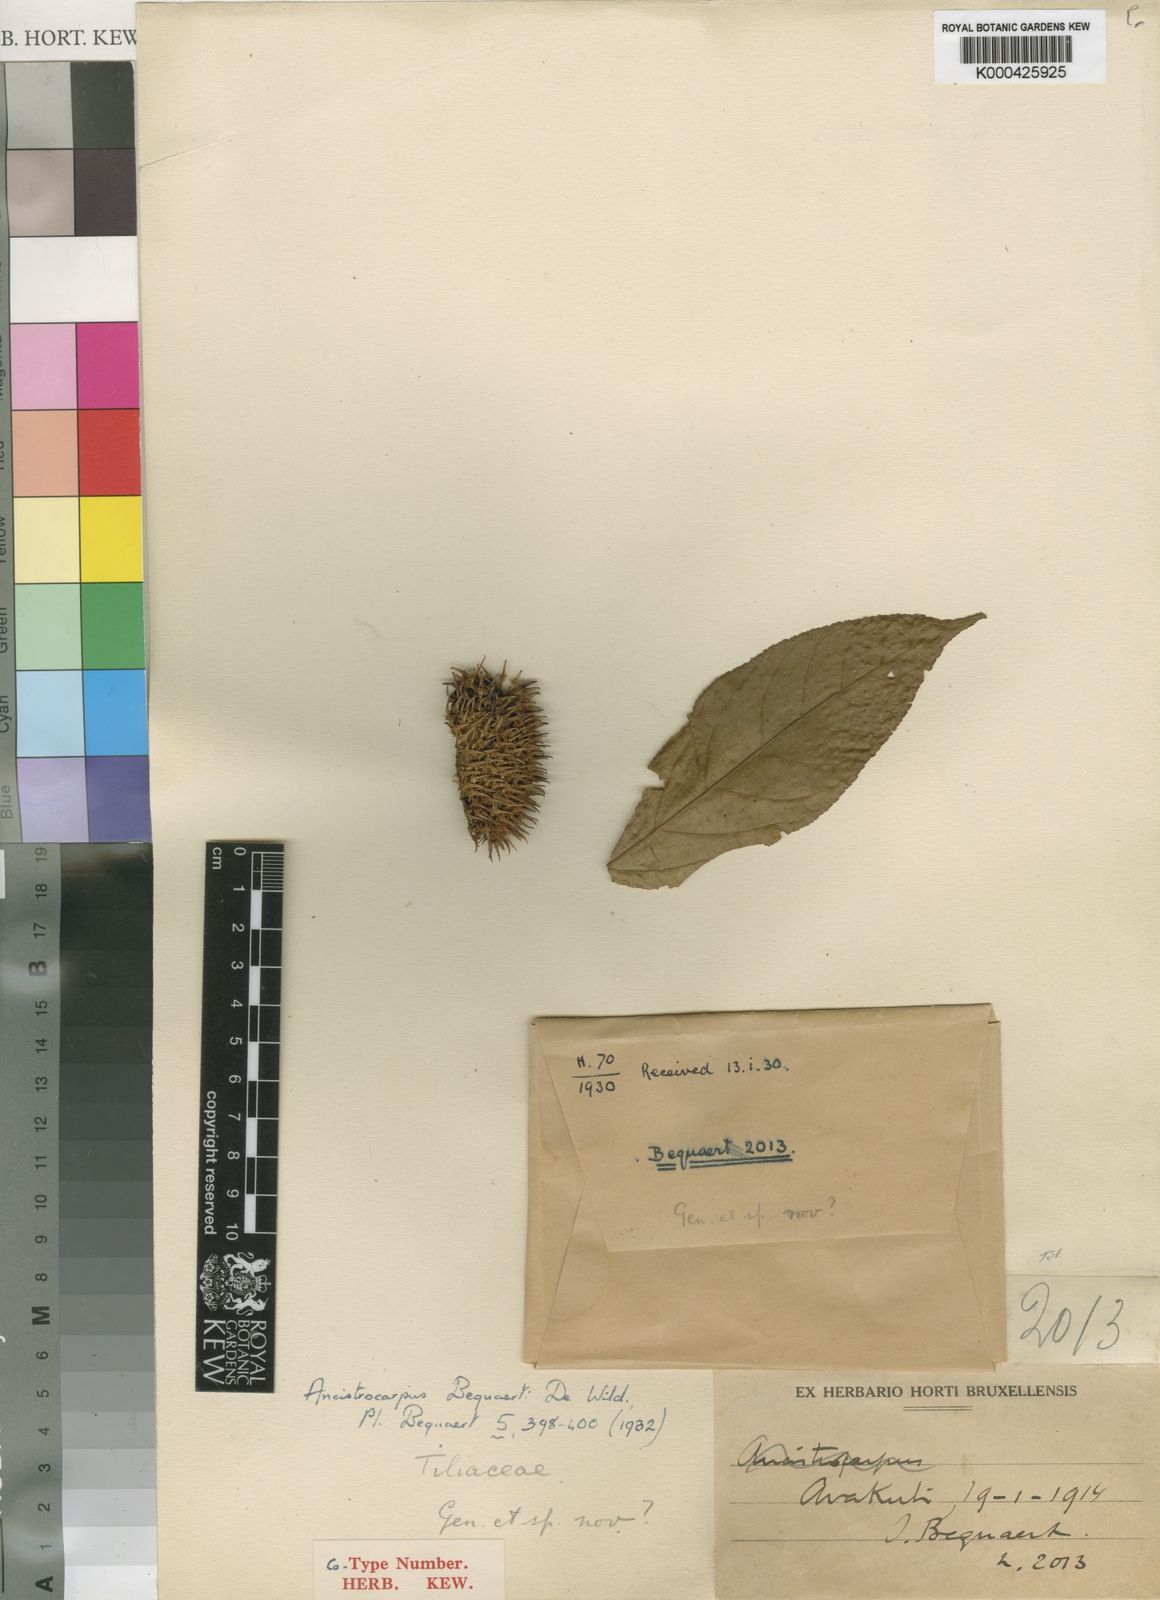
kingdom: Plantae
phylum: Tracheophyta
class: Magnoliopsida
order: Malvales
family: Malvaceae
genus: Ancistrocarpus
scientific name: Ancistrocarpus bequaertii
